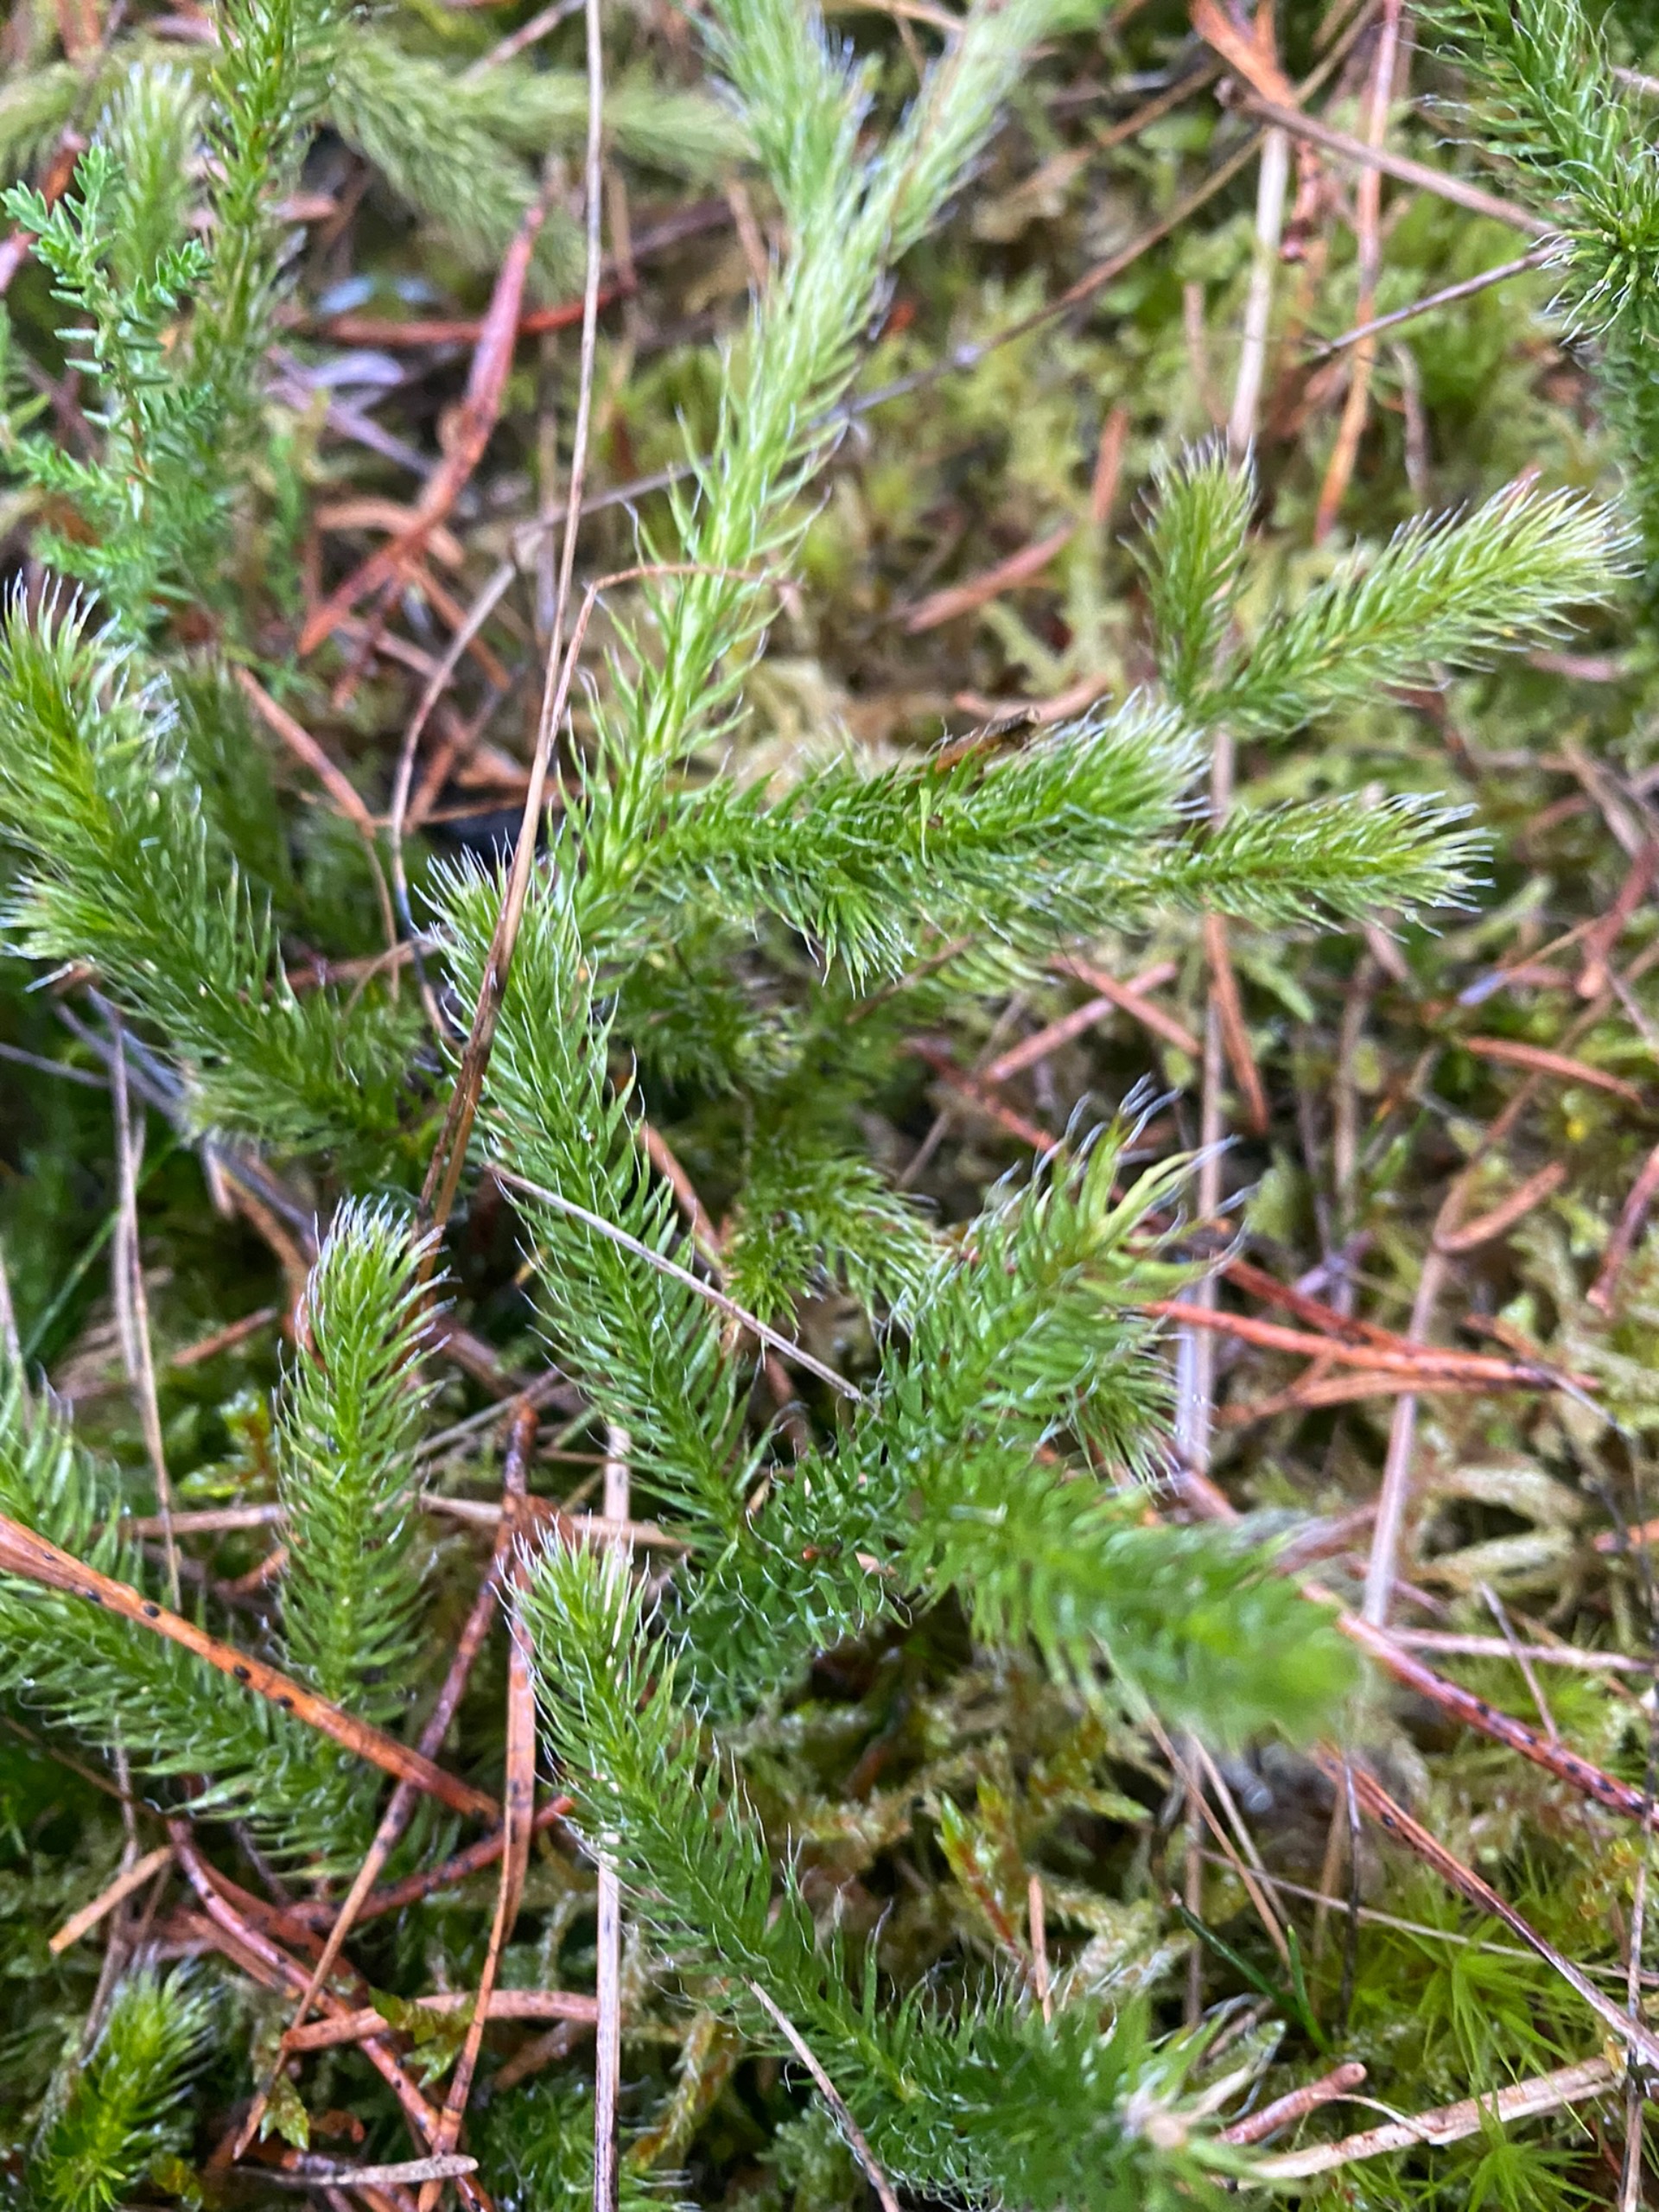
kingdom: Plantae
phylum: Tracheophyta
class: Lycopodiopsida
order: Lycopodiales
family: Lycopodiaceae
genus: Lycopodium
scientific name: Lycopodium clavatum
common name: Almindelig ulvefod
